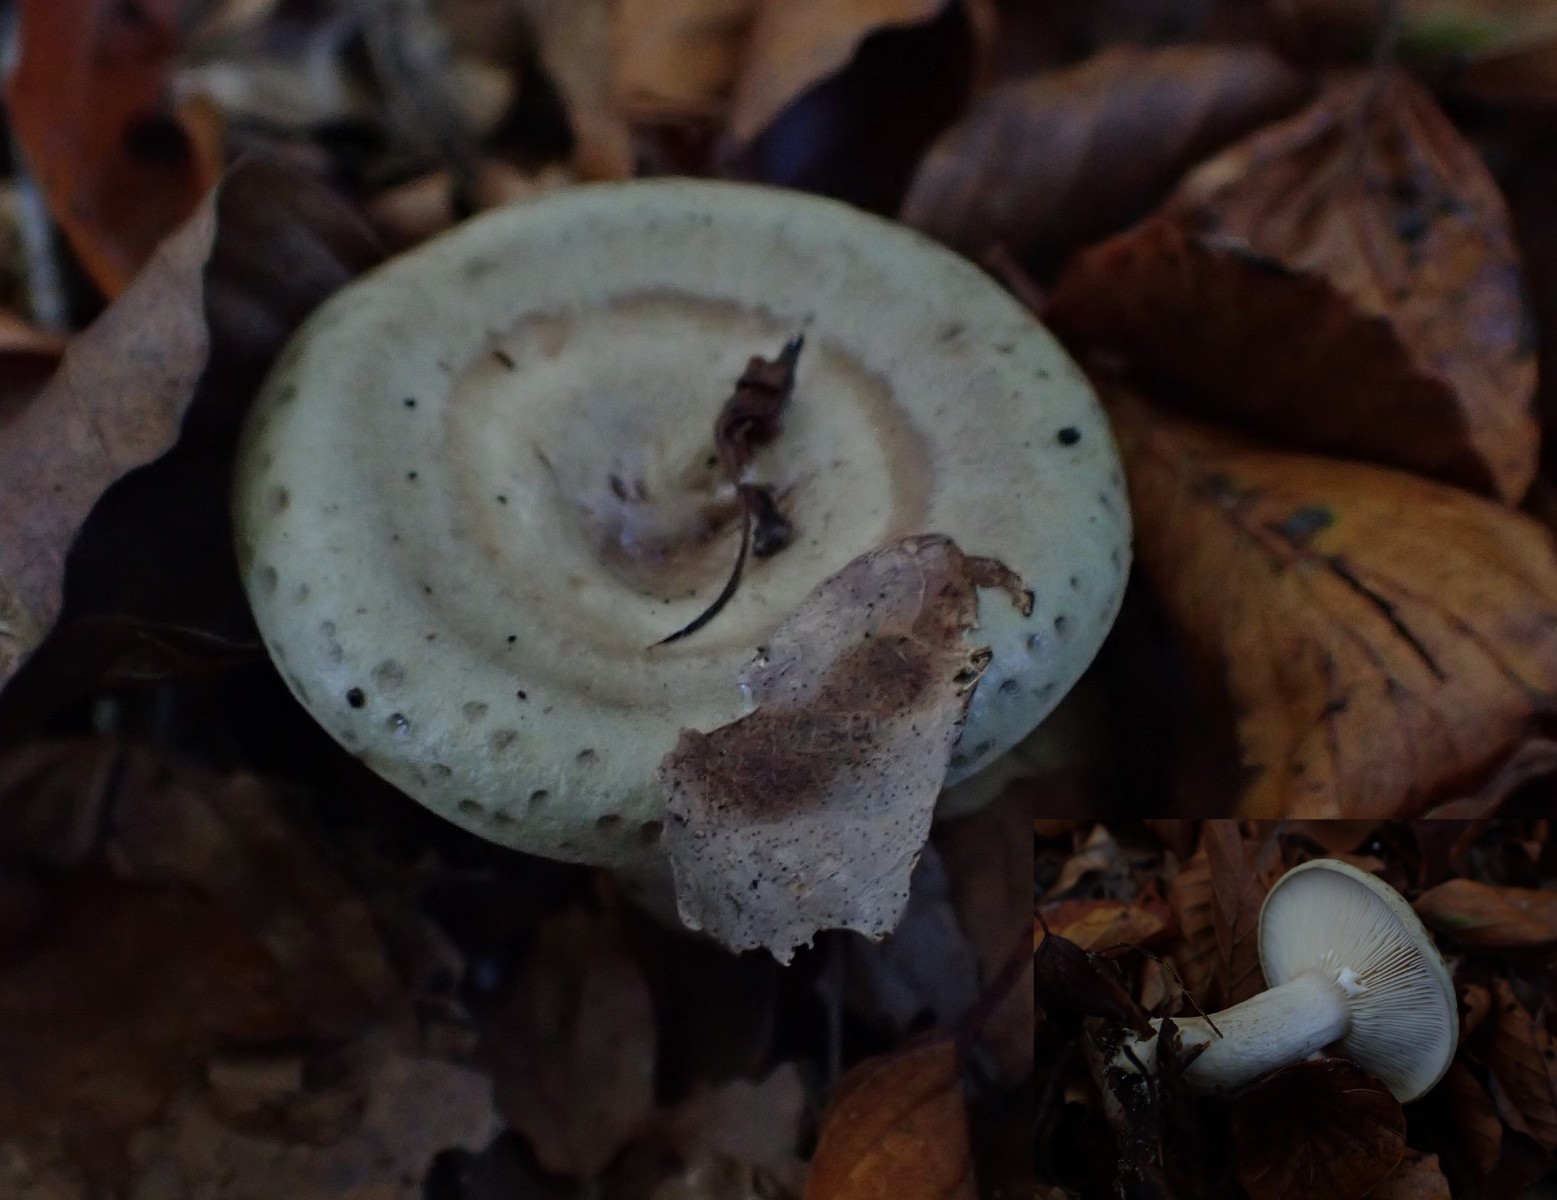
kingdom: Fungi
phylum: Basidiomycota
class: Agaricomycetes
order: Russulales
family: Russulaceae
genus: Lactarius
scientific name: Lactarius blennius
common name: dråbeplettet mælkehat
